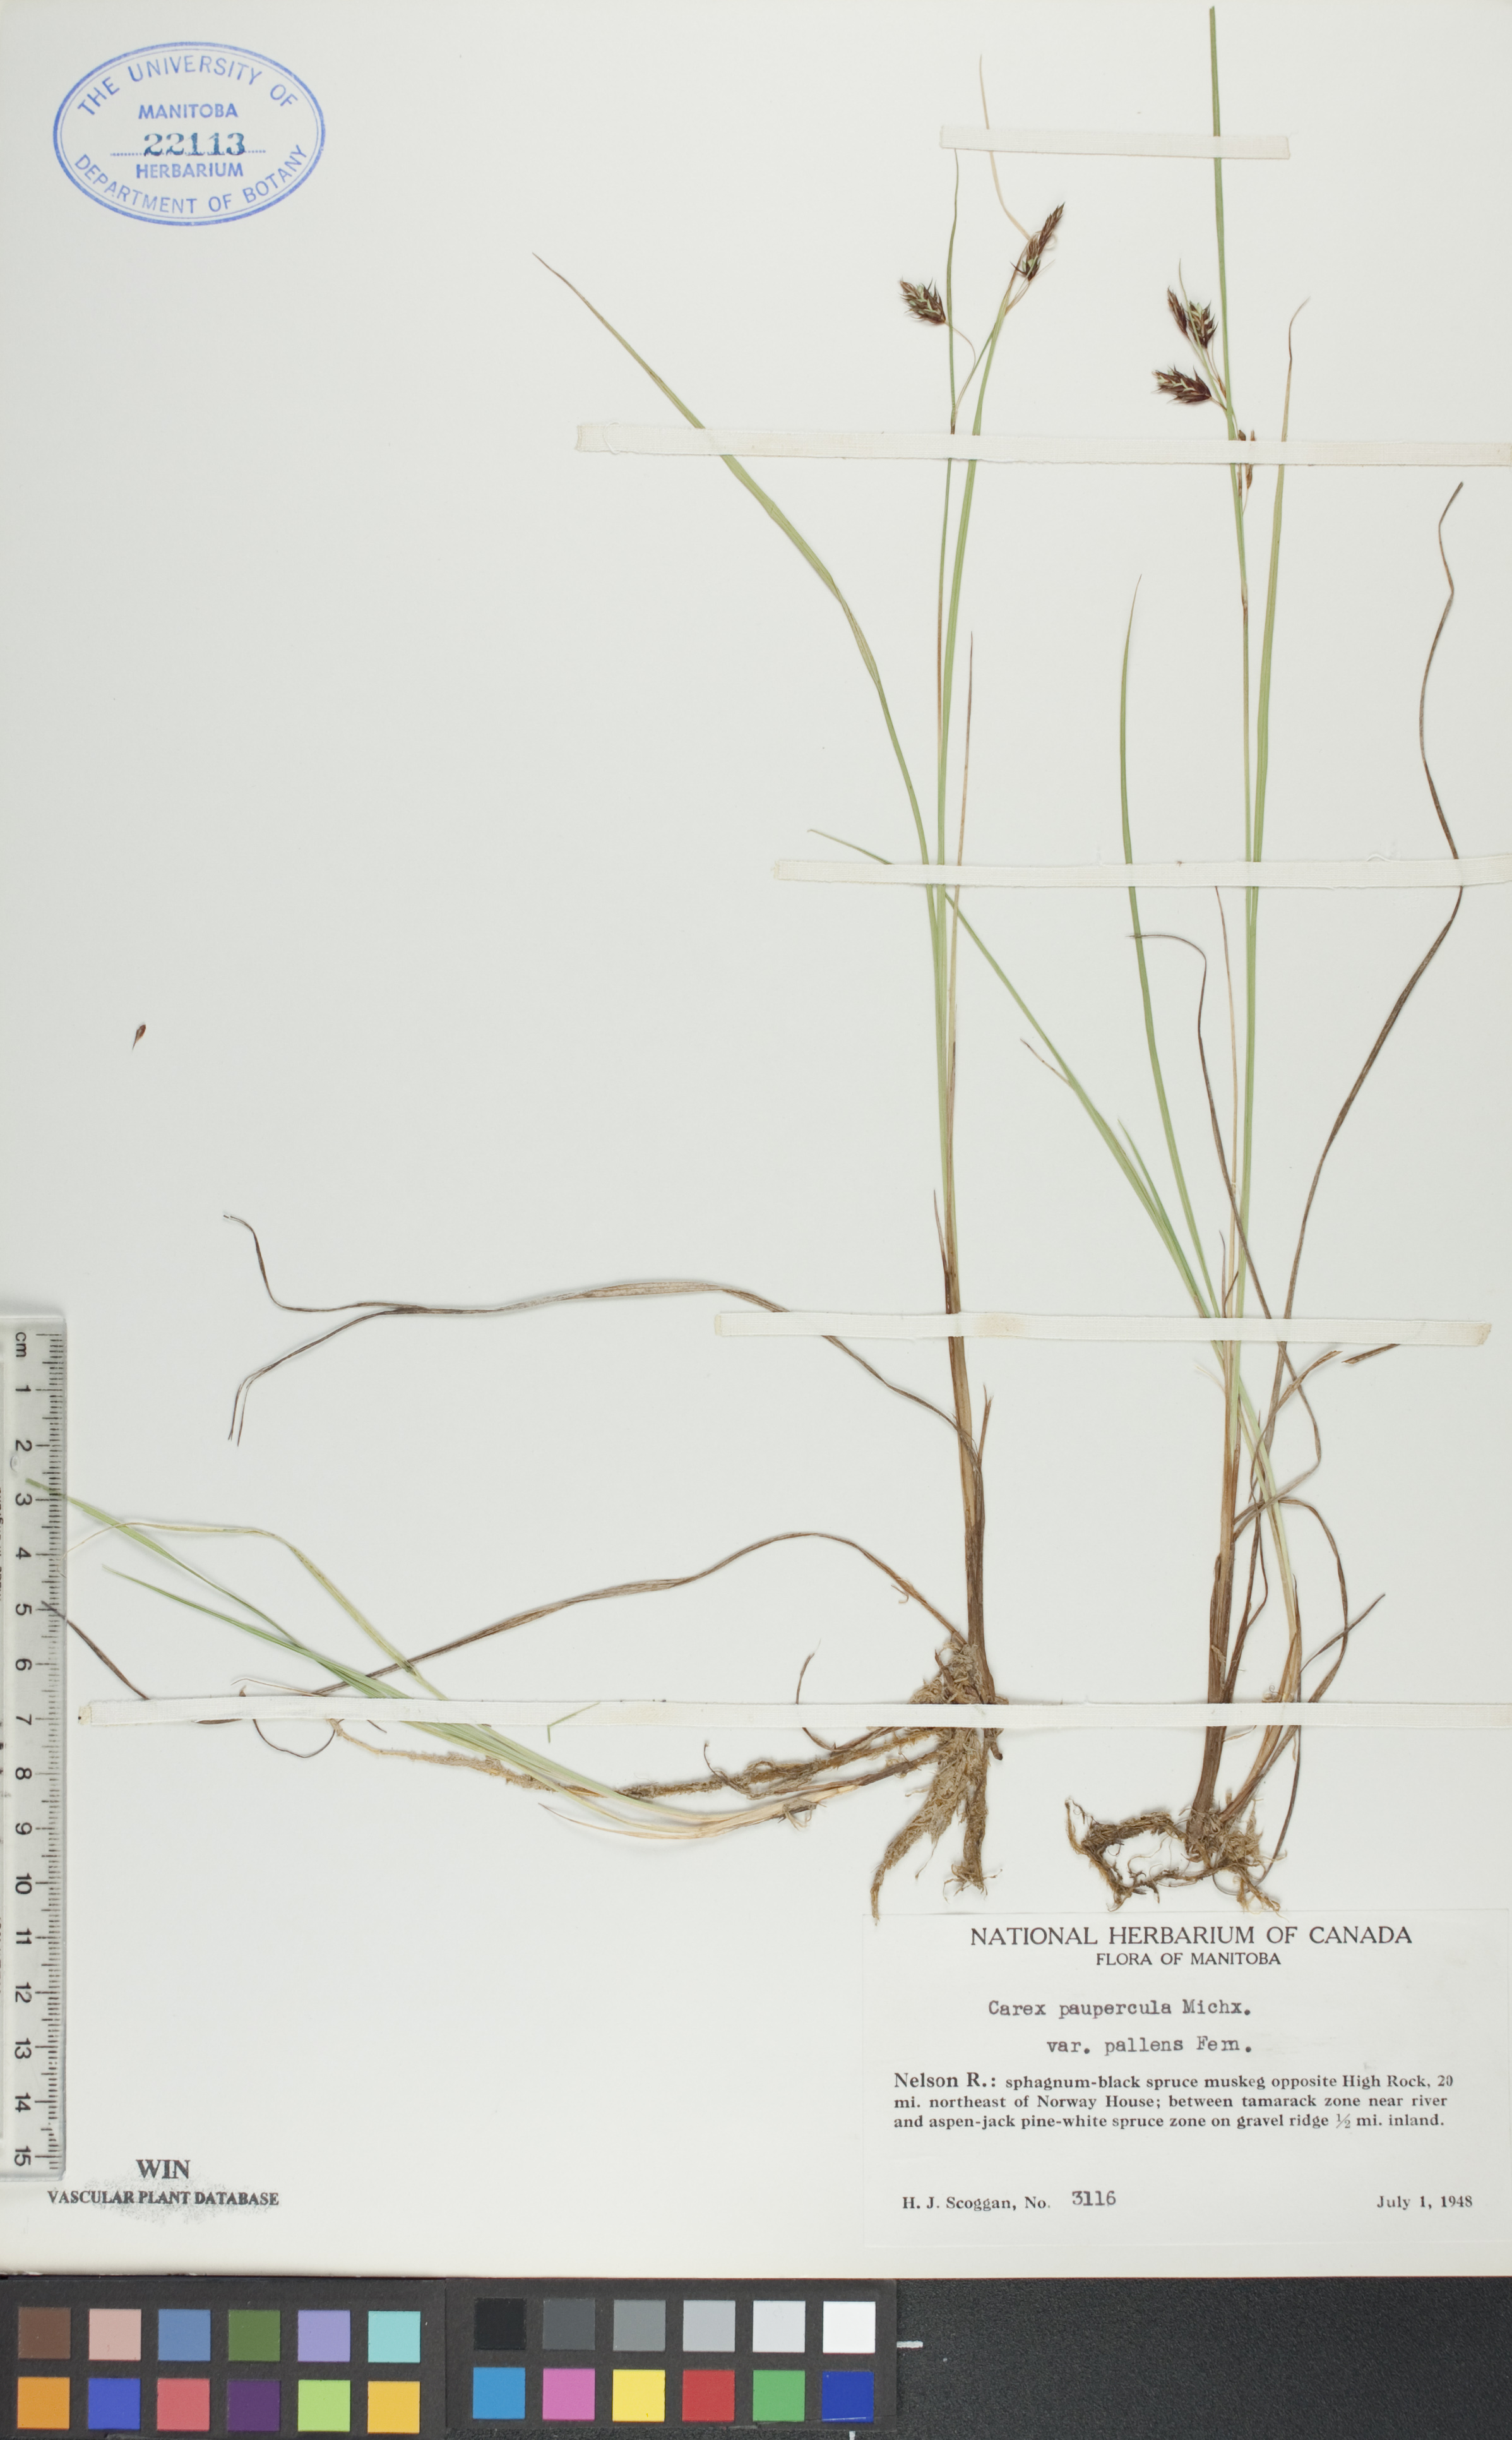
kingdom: Plantae
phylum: Tracheophyta
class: Liliopsida
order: Poales
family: Cyperaceae
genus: Carex
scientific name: Carex magellanica
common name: Bog sedge
